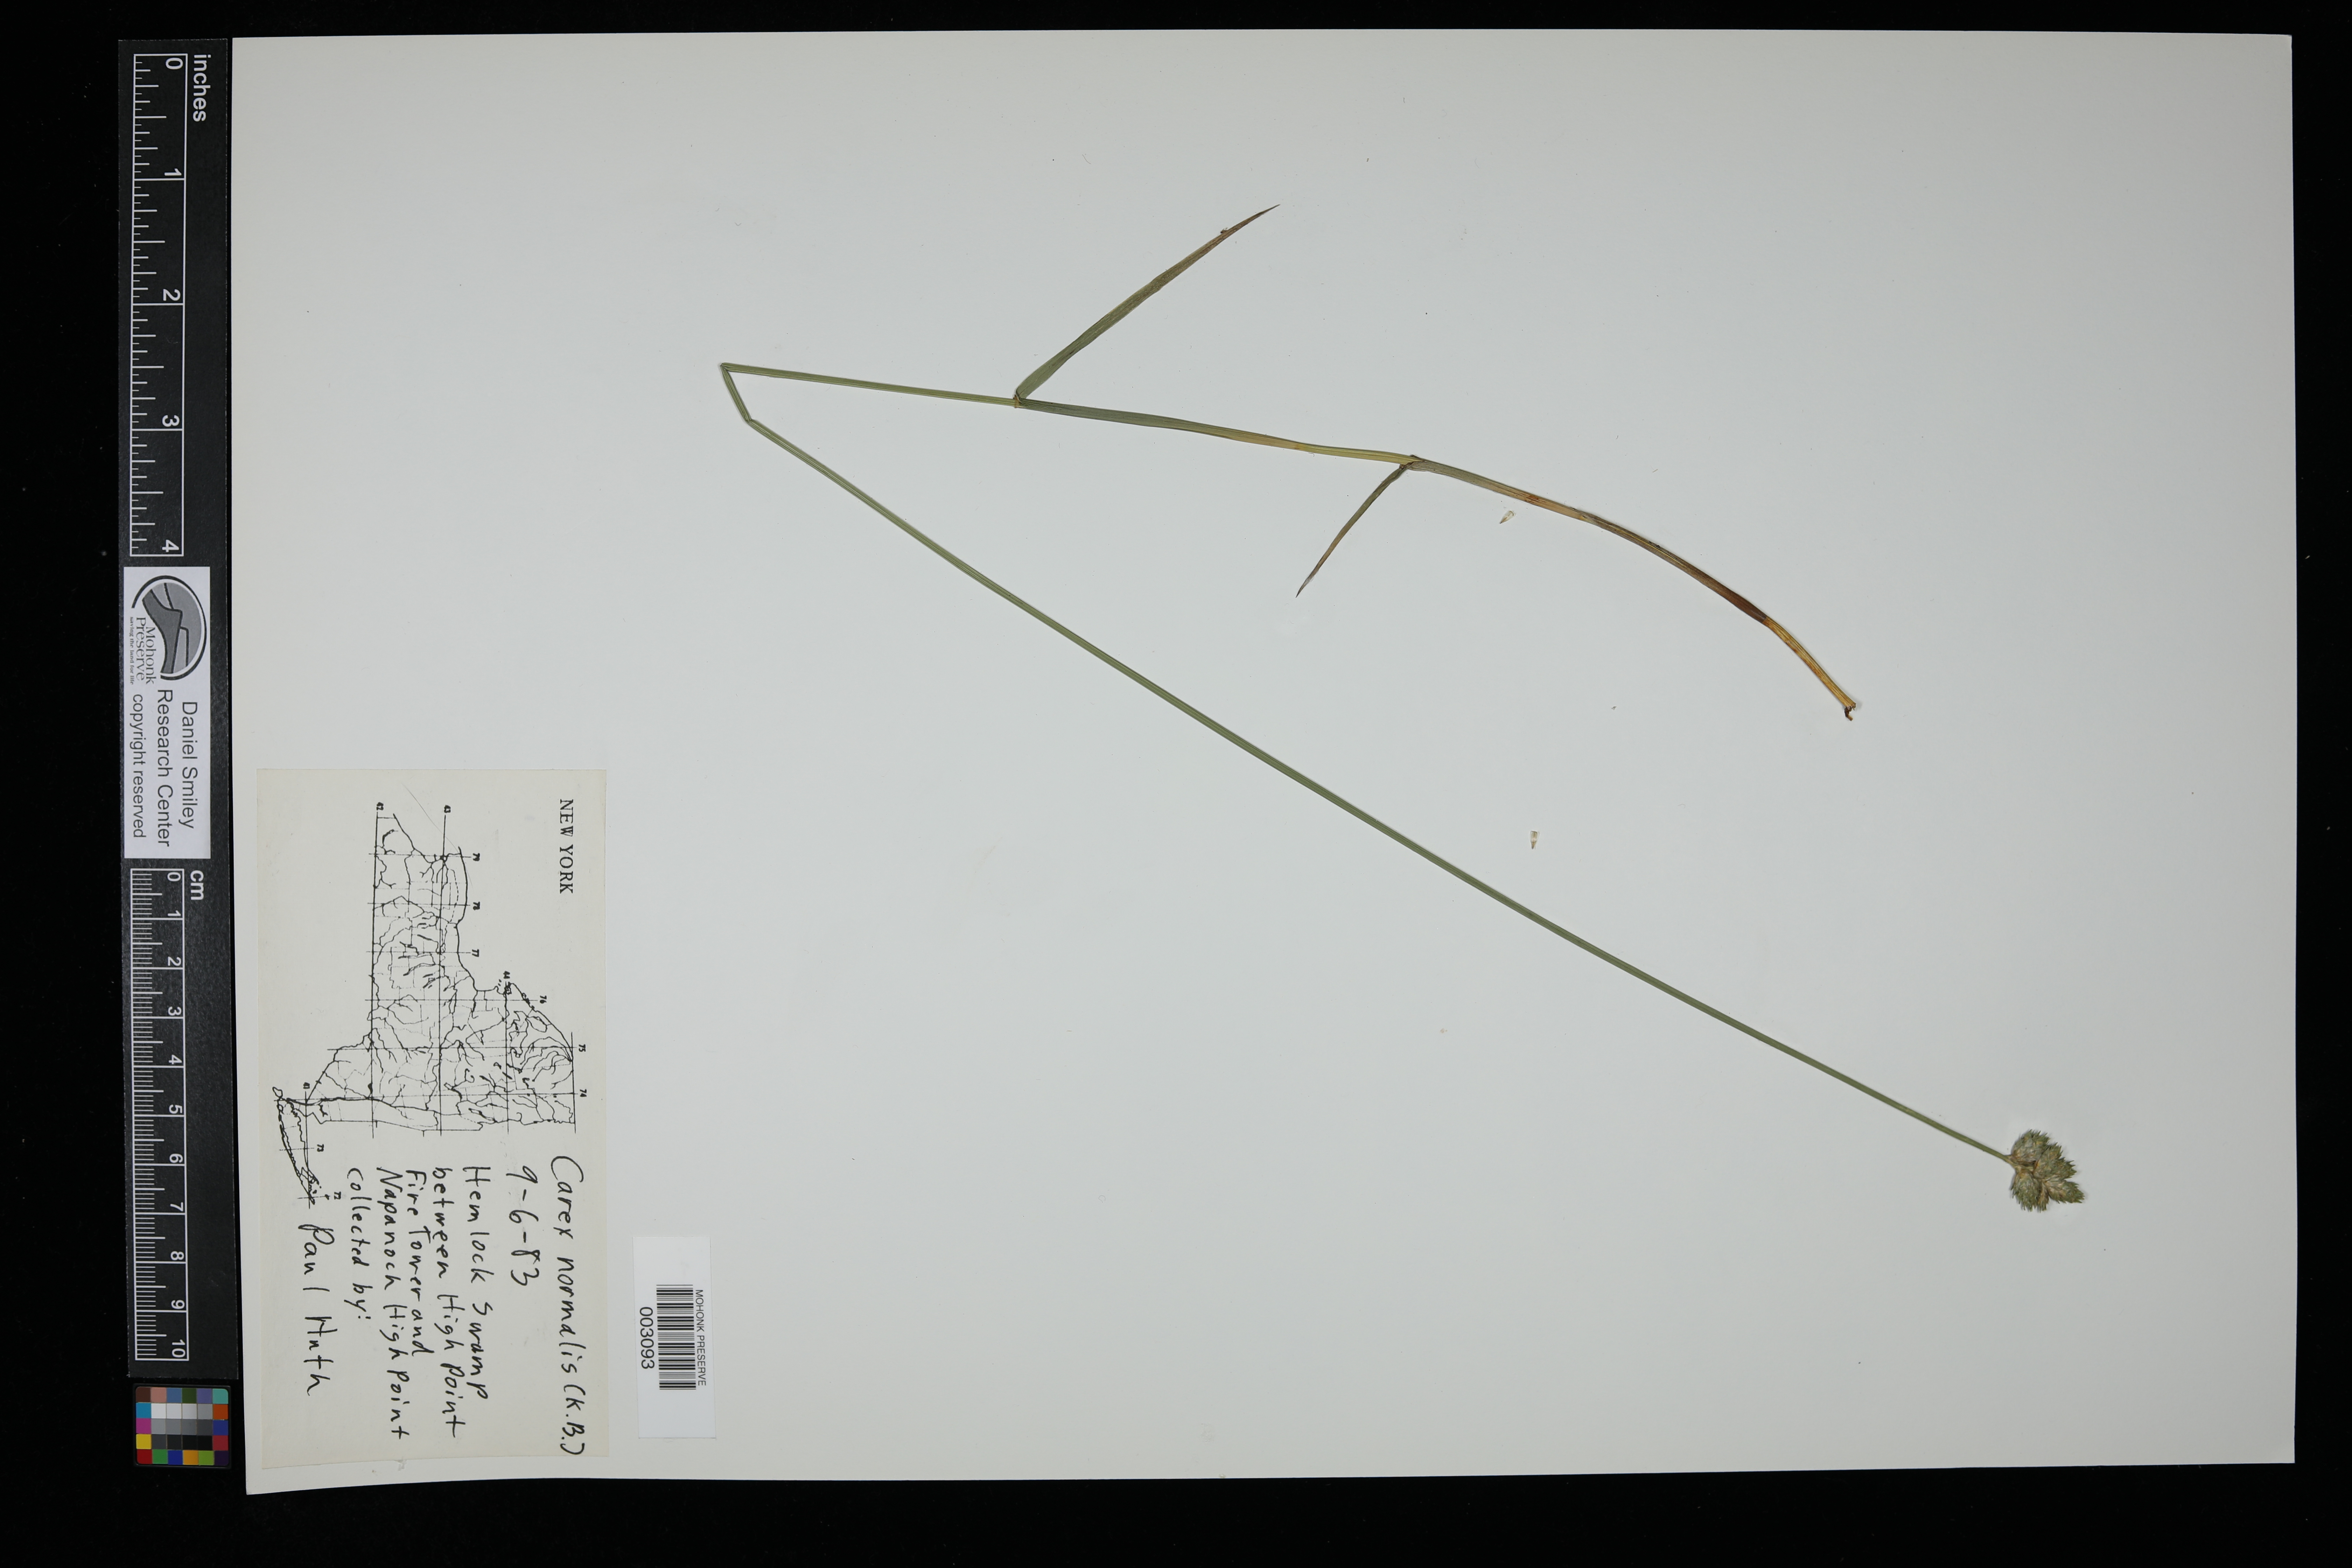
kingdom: Plantae
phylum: Tracheophyta
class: Liliopsida
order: Poales
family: Cyperaceae
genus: Carex
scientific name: Carex normalis
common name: Greater straw sedge
